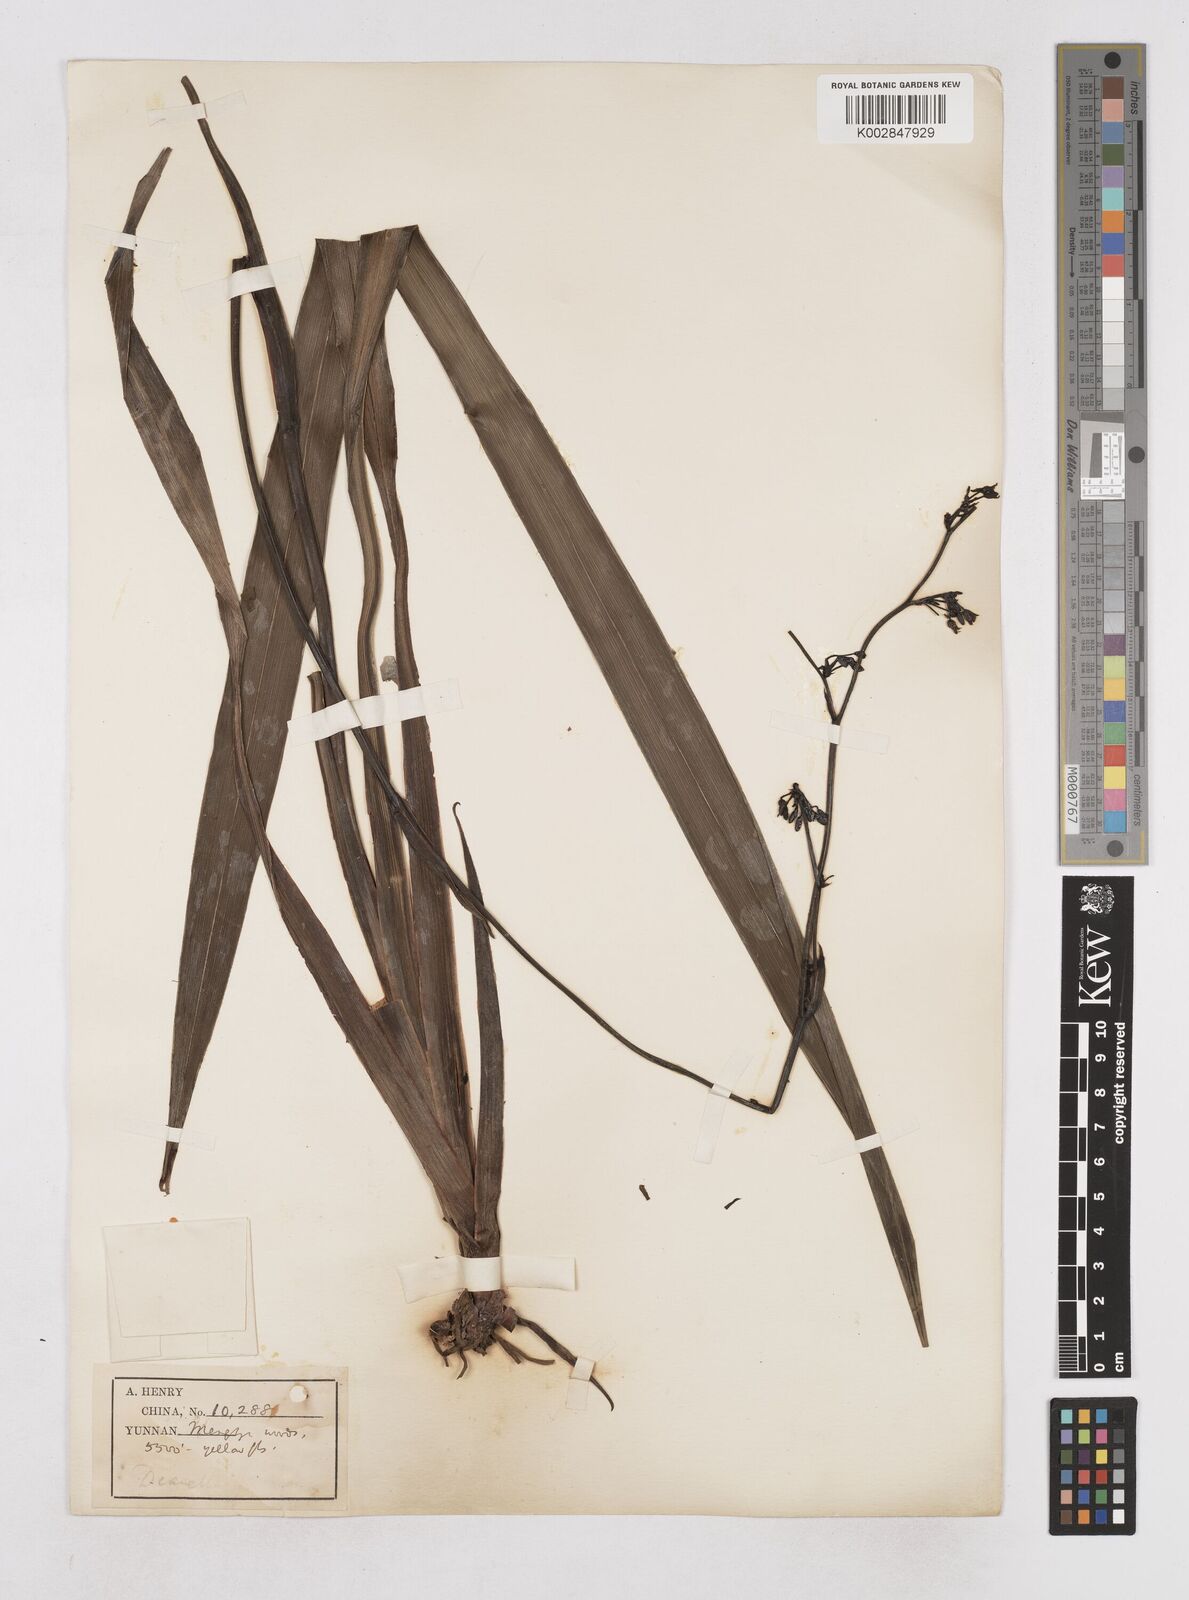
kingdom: Plantae
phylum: Tracheophyta
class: Liliopsida
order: Asparagales
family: Asphodelaceae
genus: Dianella
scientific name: Dianella ensifolia
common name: New zealand lilyplant
